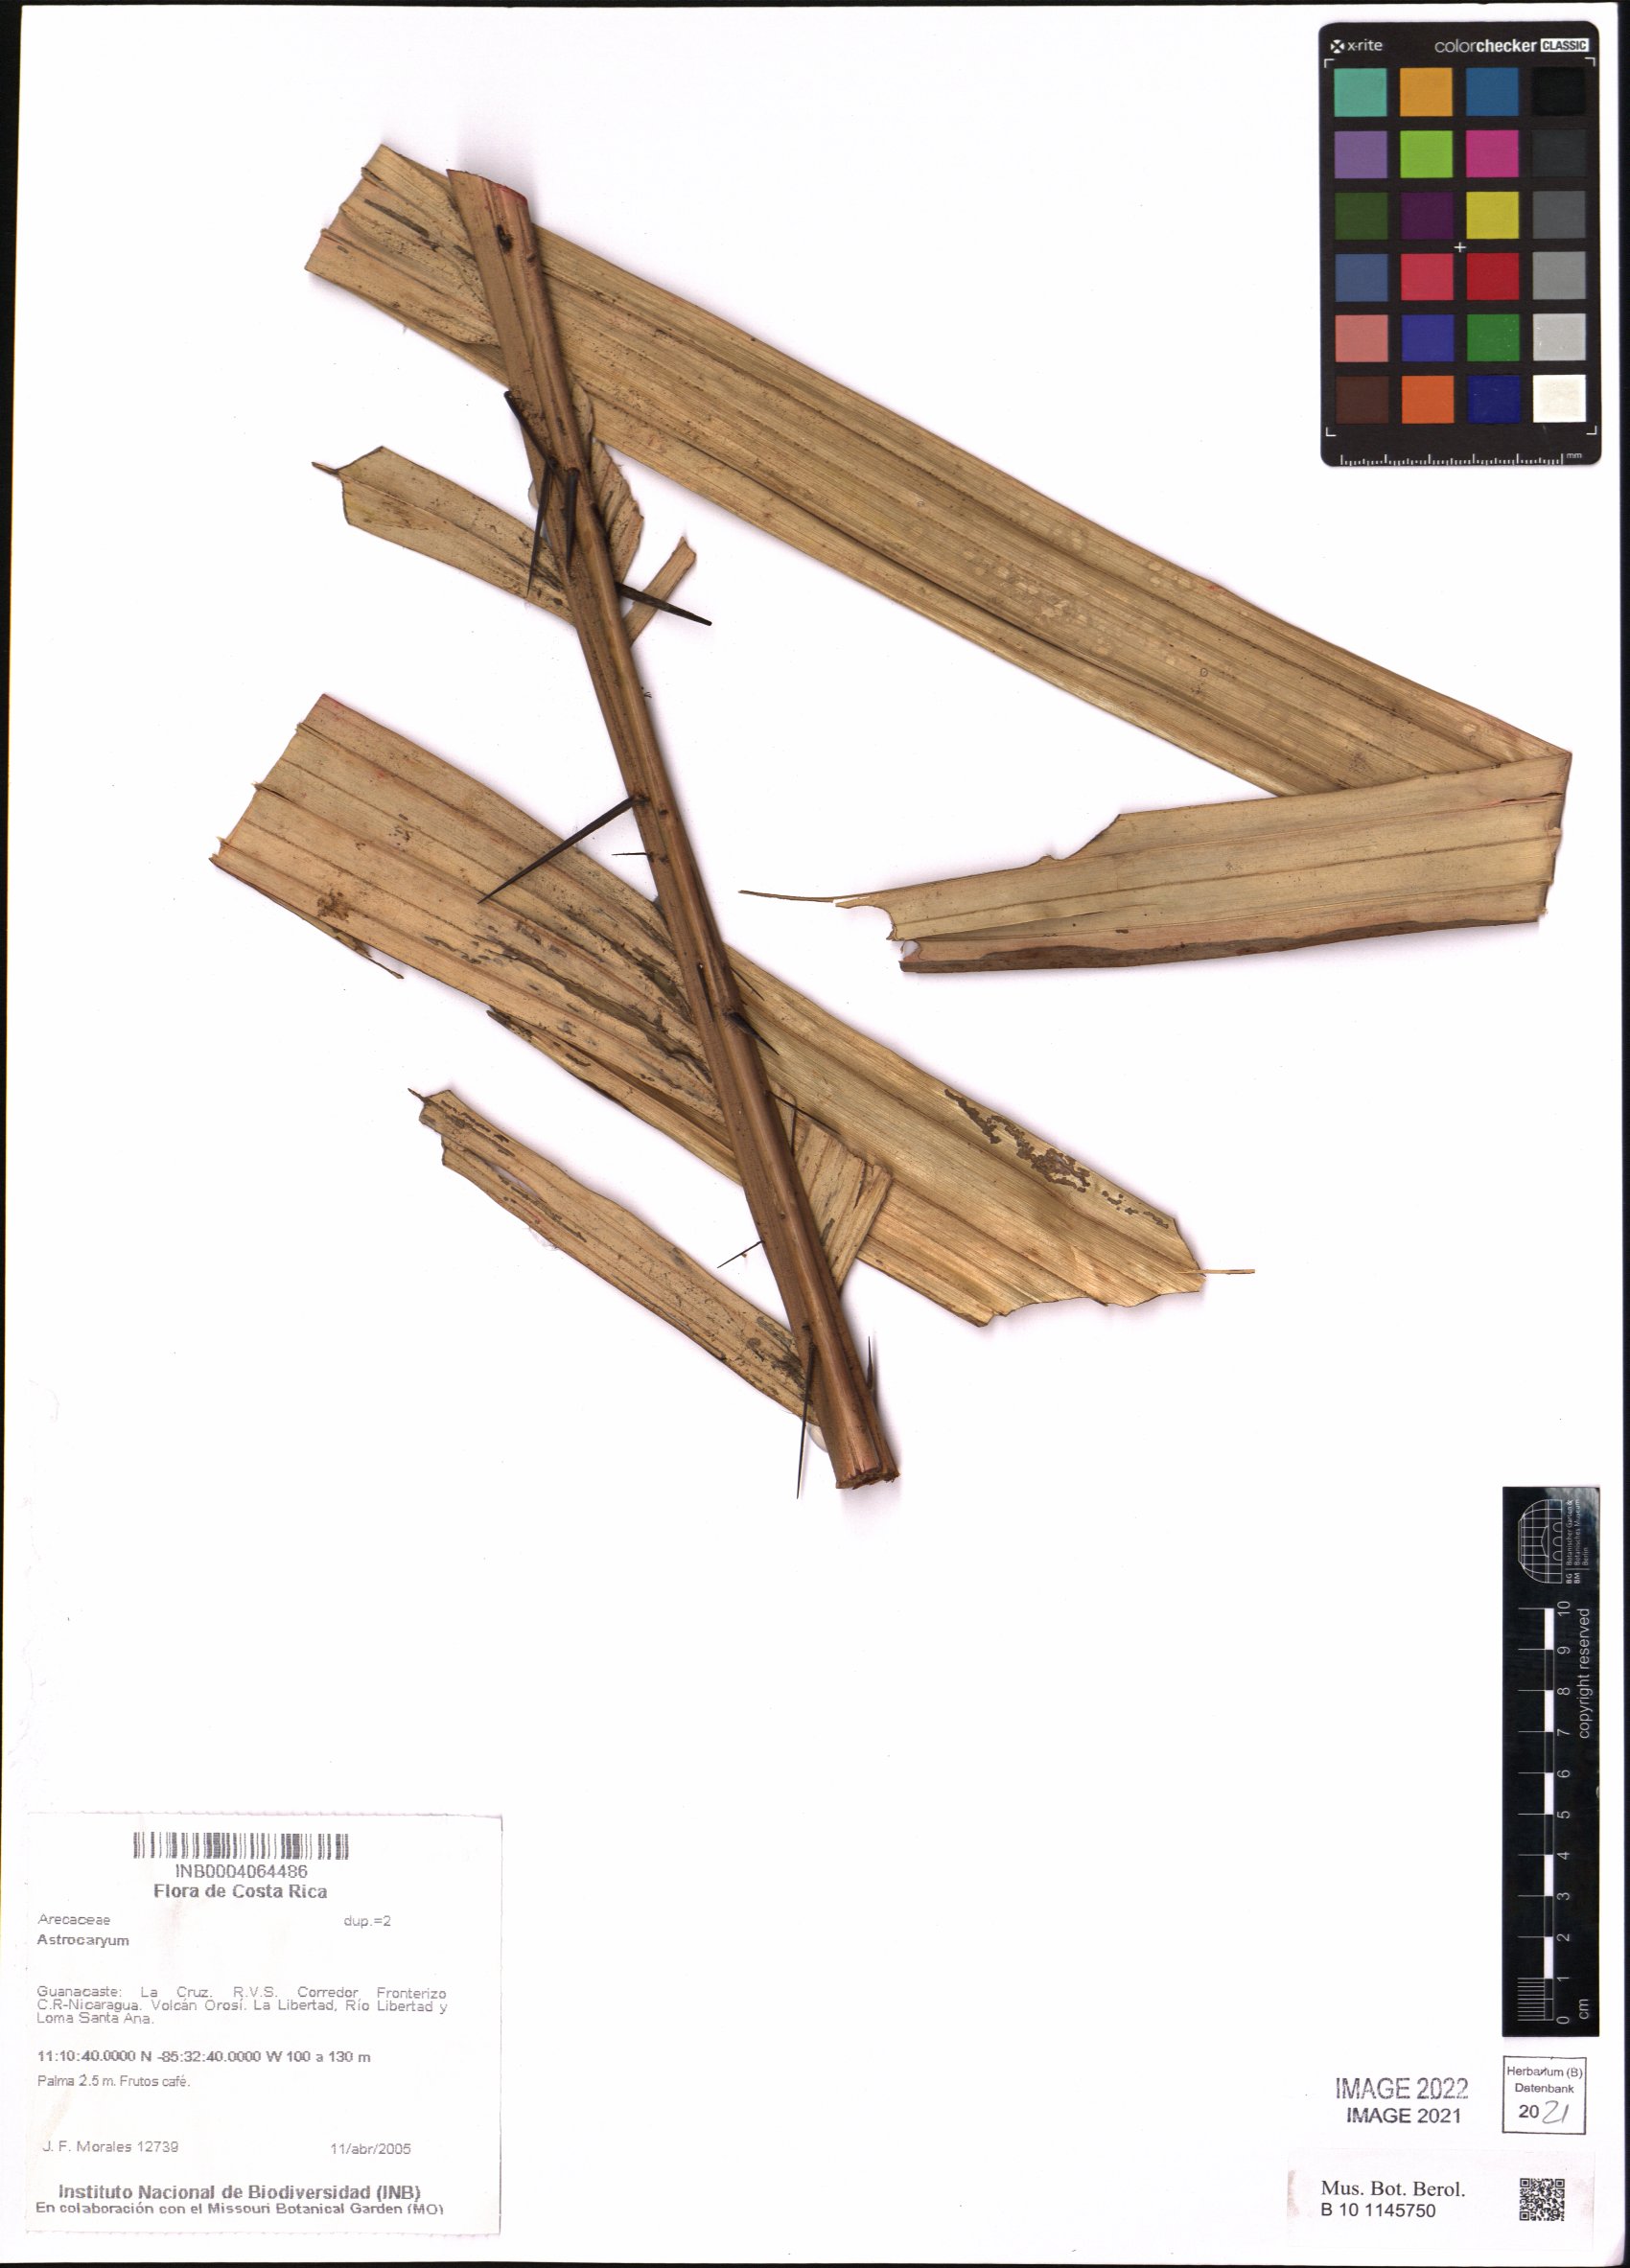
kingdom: Plantae
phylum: Tracheophyta
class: Liliopsida
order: Arecales
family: Arecaceae
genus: Astrocaryum
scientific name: Astrocaryum
